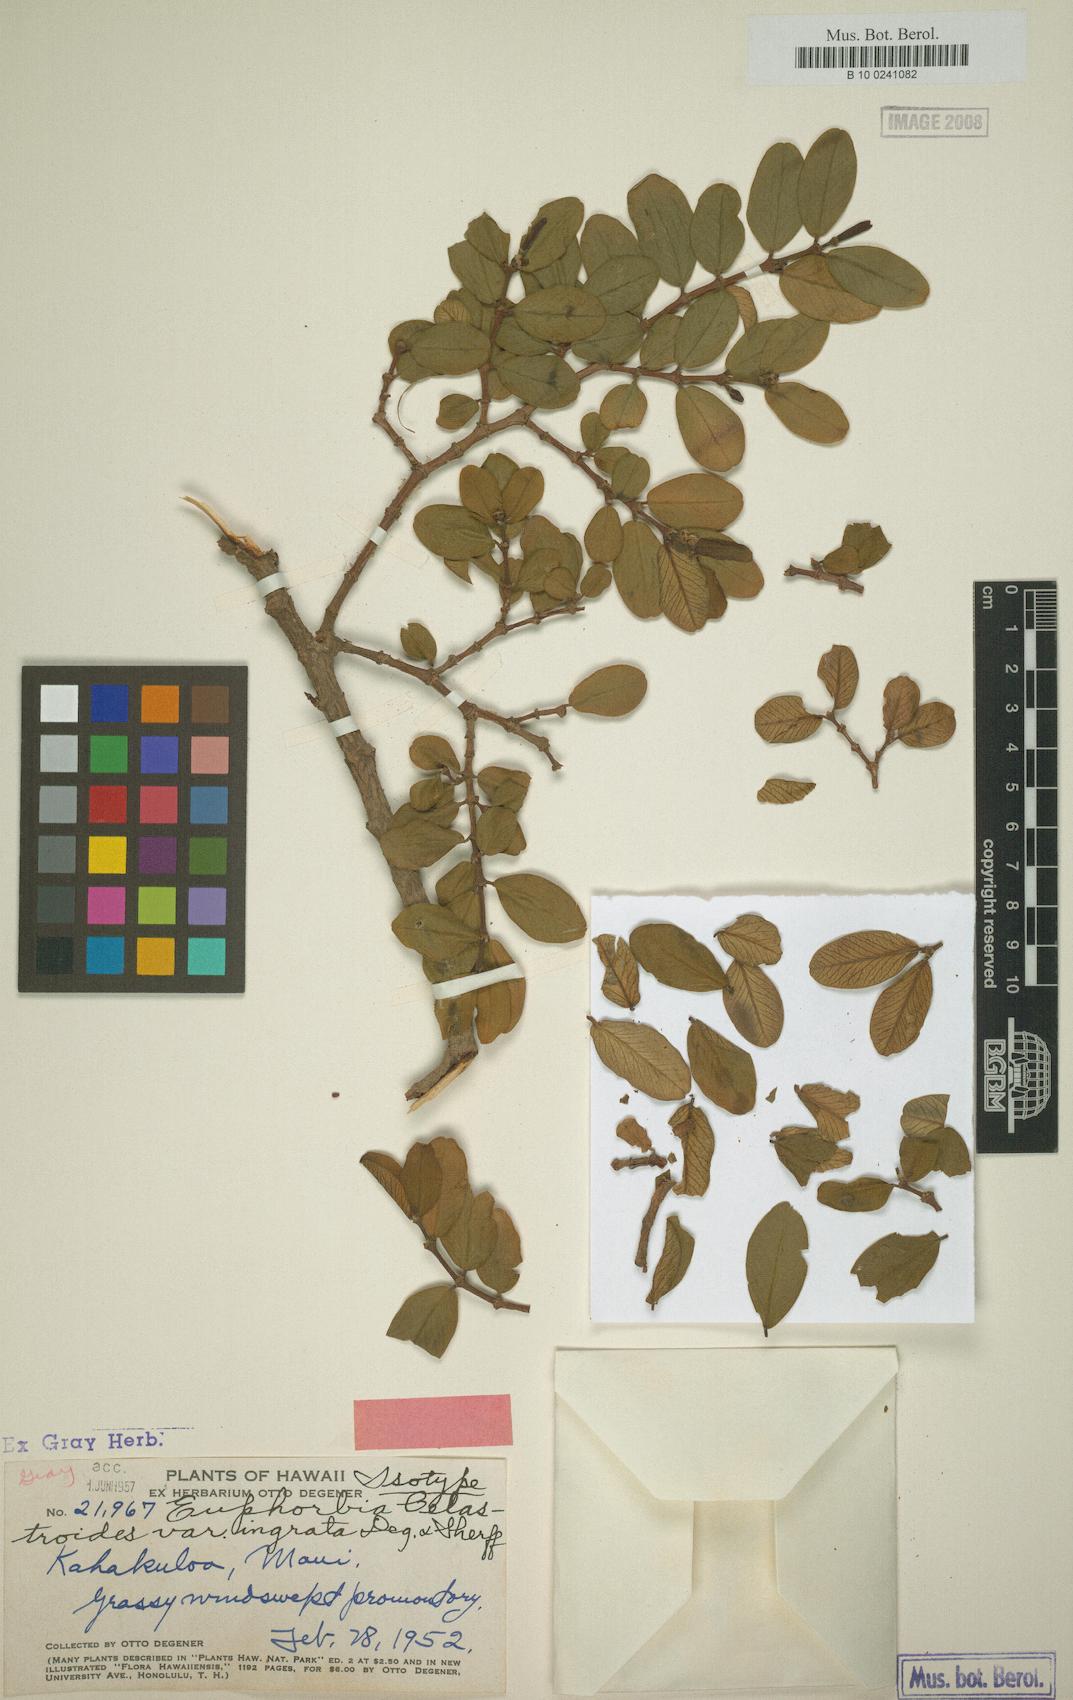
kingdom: Plantae
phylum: Tracheophyta
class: Magnoliopsida
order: Malpighiales
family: Euphorbiaceae
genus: Euphorbia
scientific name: Euphorbia celastroides
